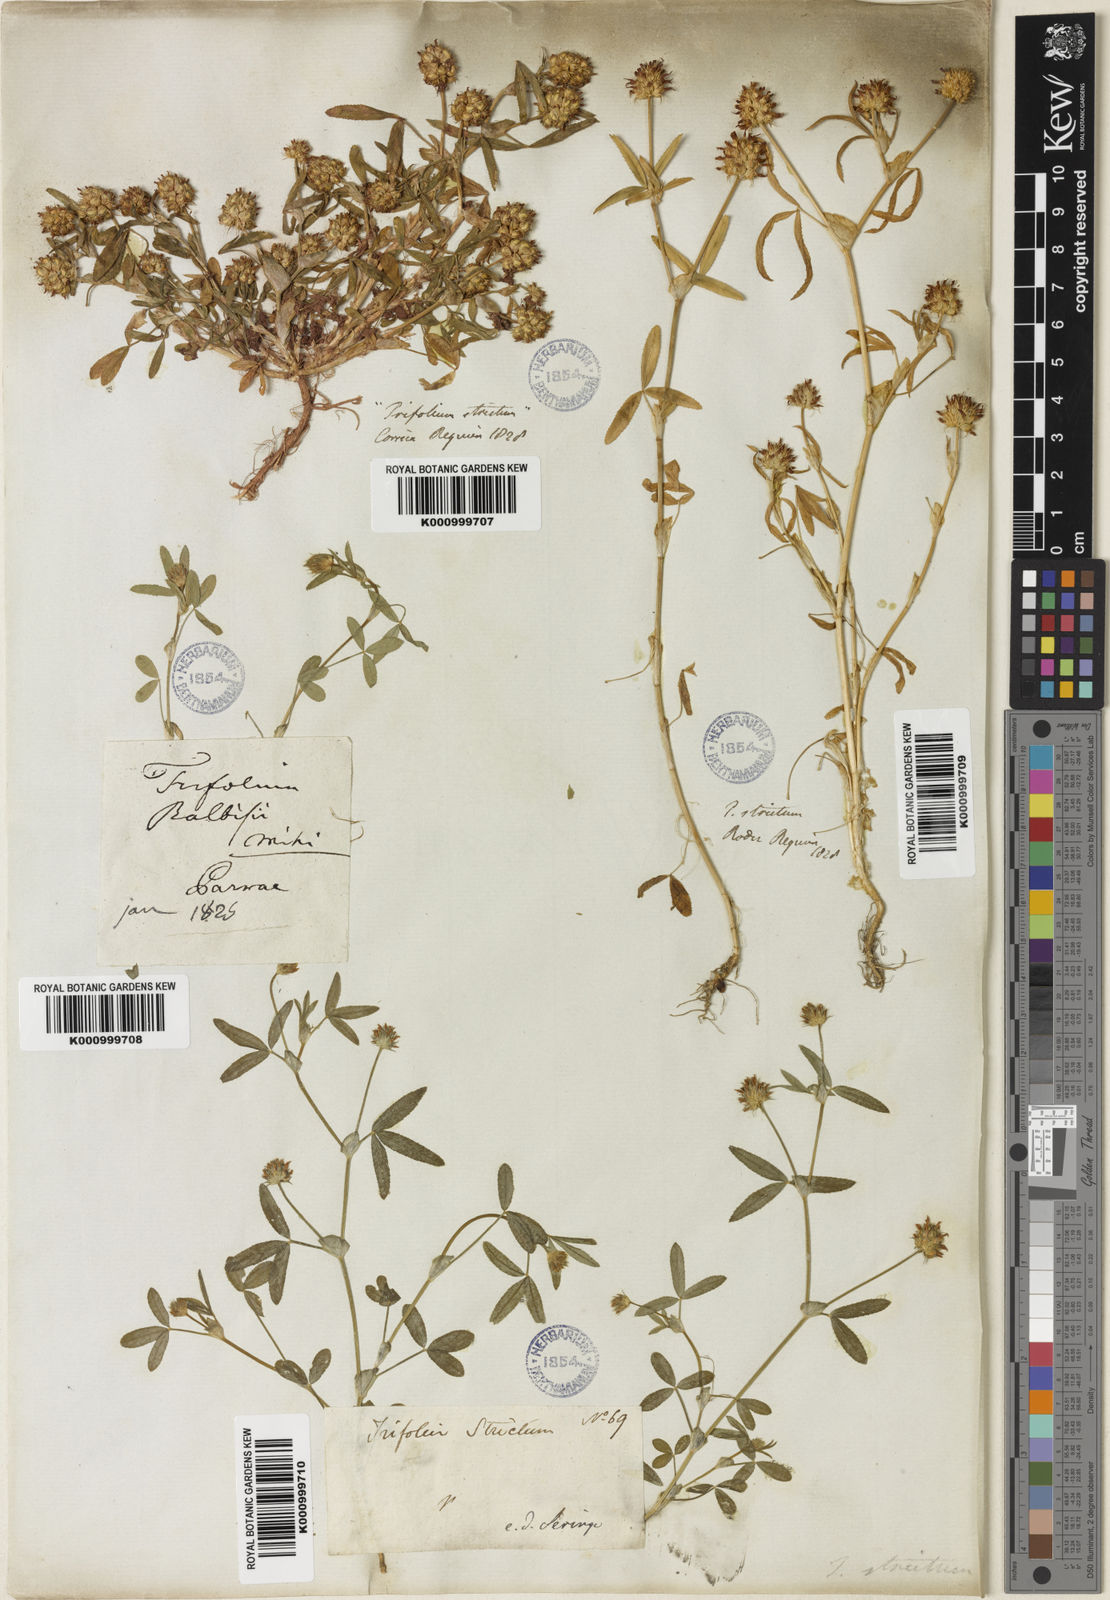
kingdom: Plantae
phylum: Tracheophyta
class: Magnoliopsida
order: Fabales
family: Fabaceae
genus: Trifolium
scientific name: Trifolium strictum
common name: Upright clover
